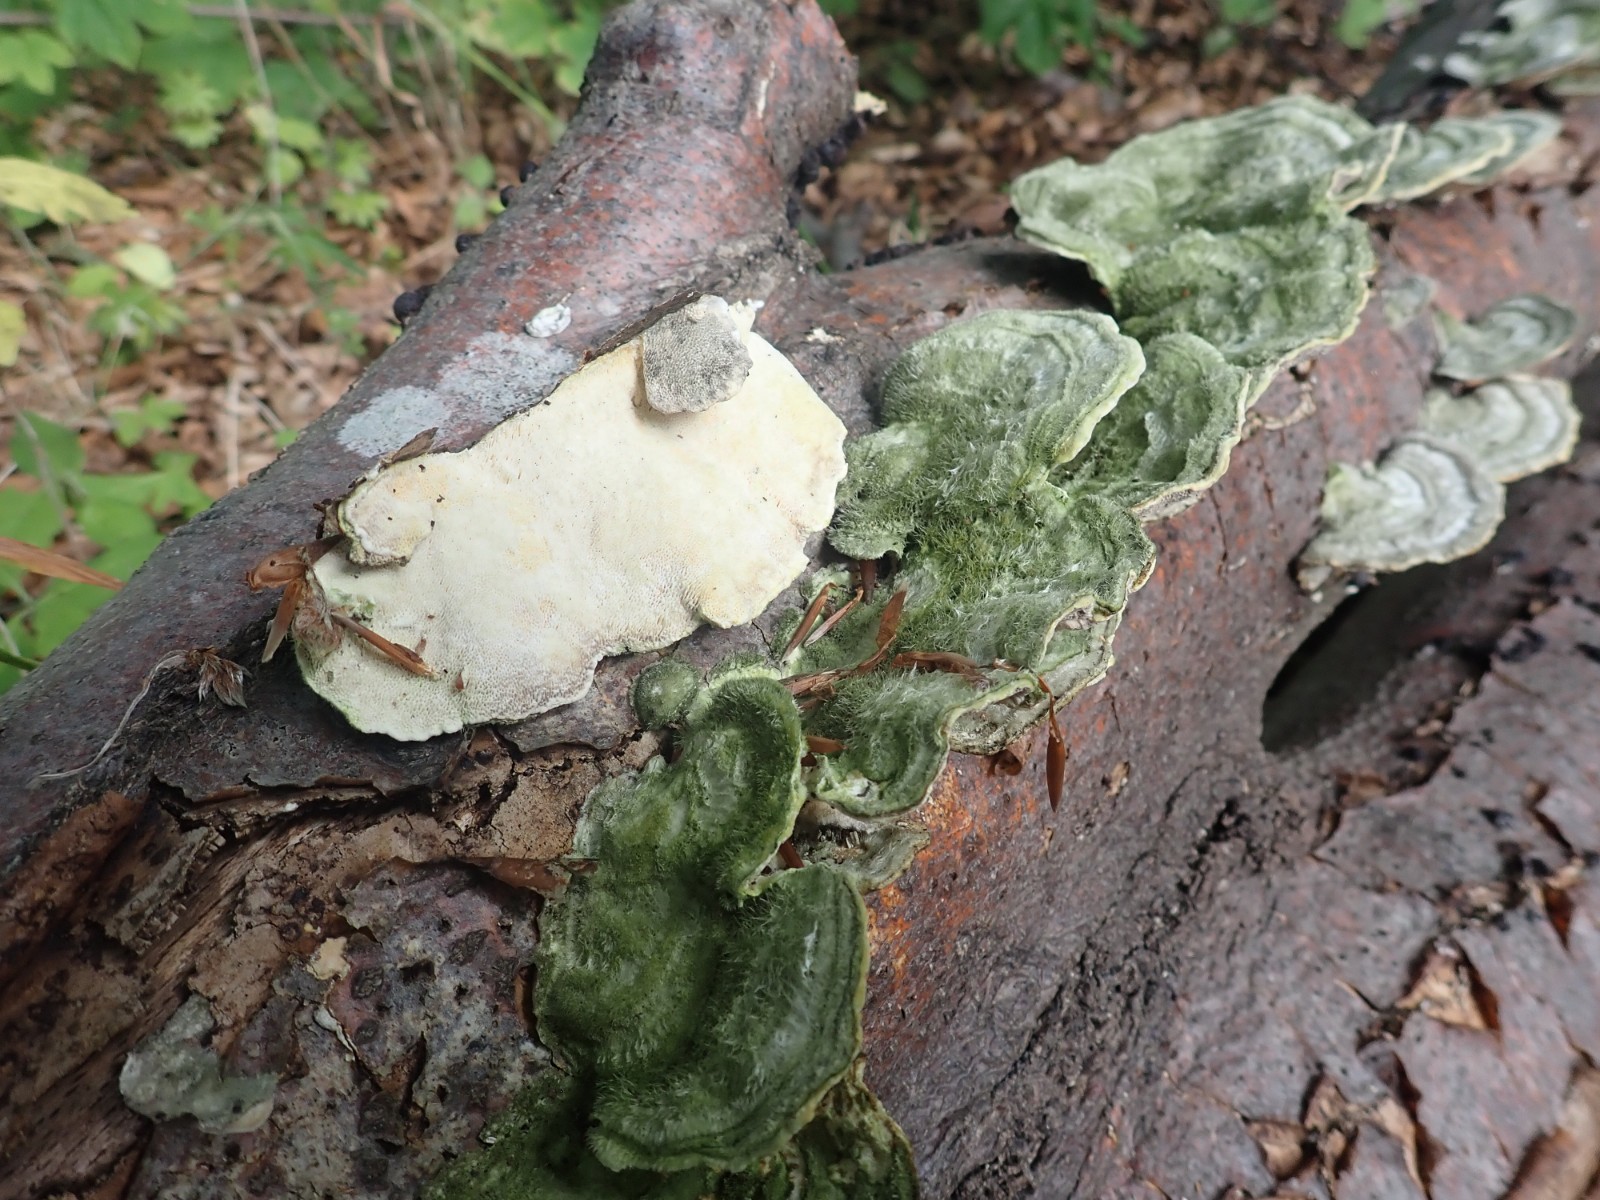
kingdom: Fungi
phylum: Basidiomycota
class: Agaricomycetes
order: Polyporales
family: Polyporaceae
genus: Trametes
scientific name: Trametes hirsuta
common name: håret læderporesvamp
